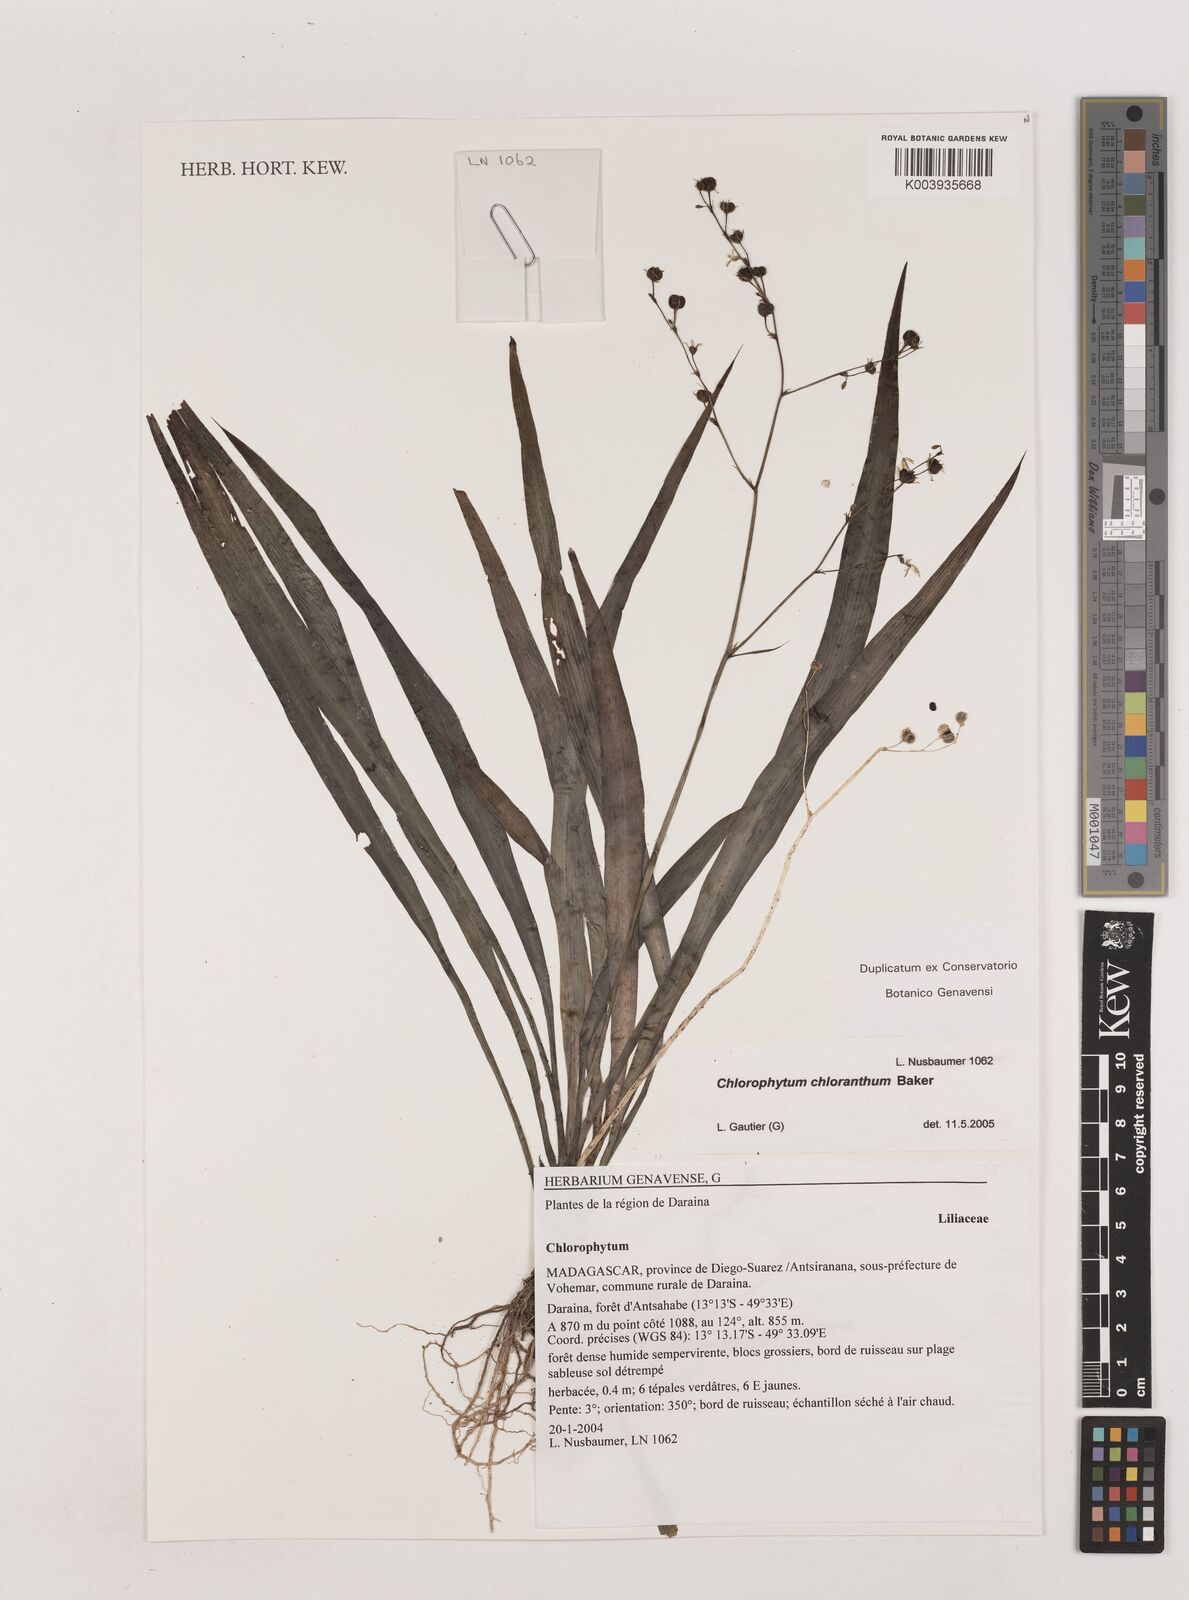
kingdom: Plantae
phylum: Tracheophyta
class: Liliopsida
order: Asparagales
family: Asparagaceae
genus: Chlorophytum
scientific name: Chlorophytum chloranthum
